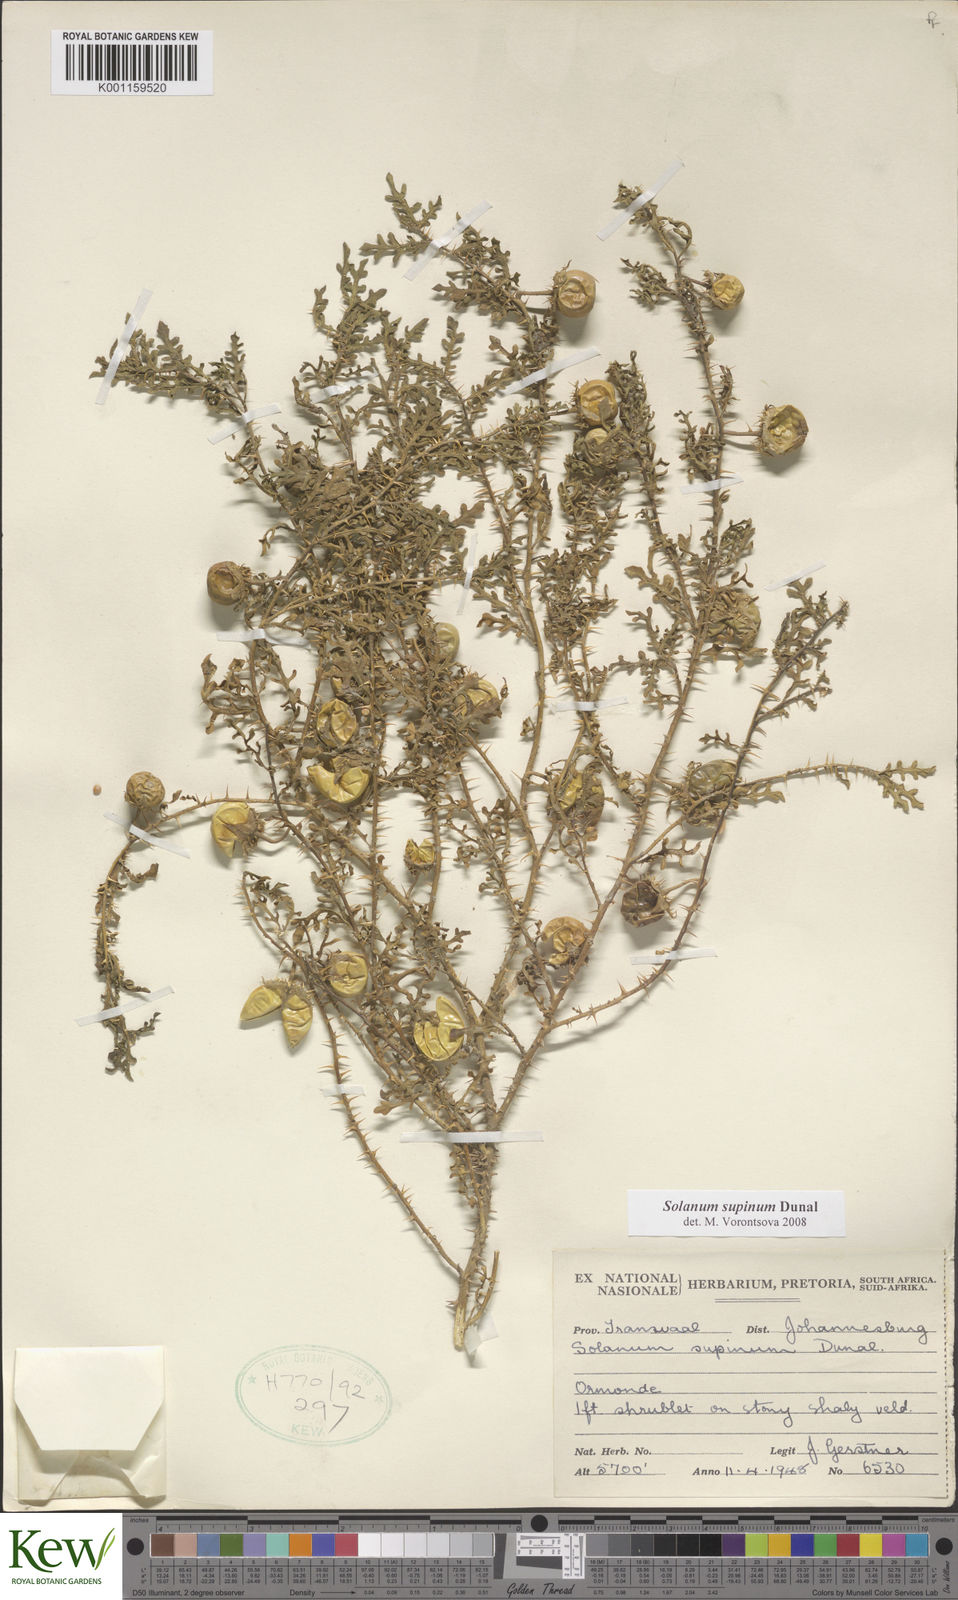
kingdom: Plantae
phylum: Tracheophyta
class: Magnoliopsida
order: Solanales
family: Solanaceae
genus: Solanum
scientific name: Solanum supinum
